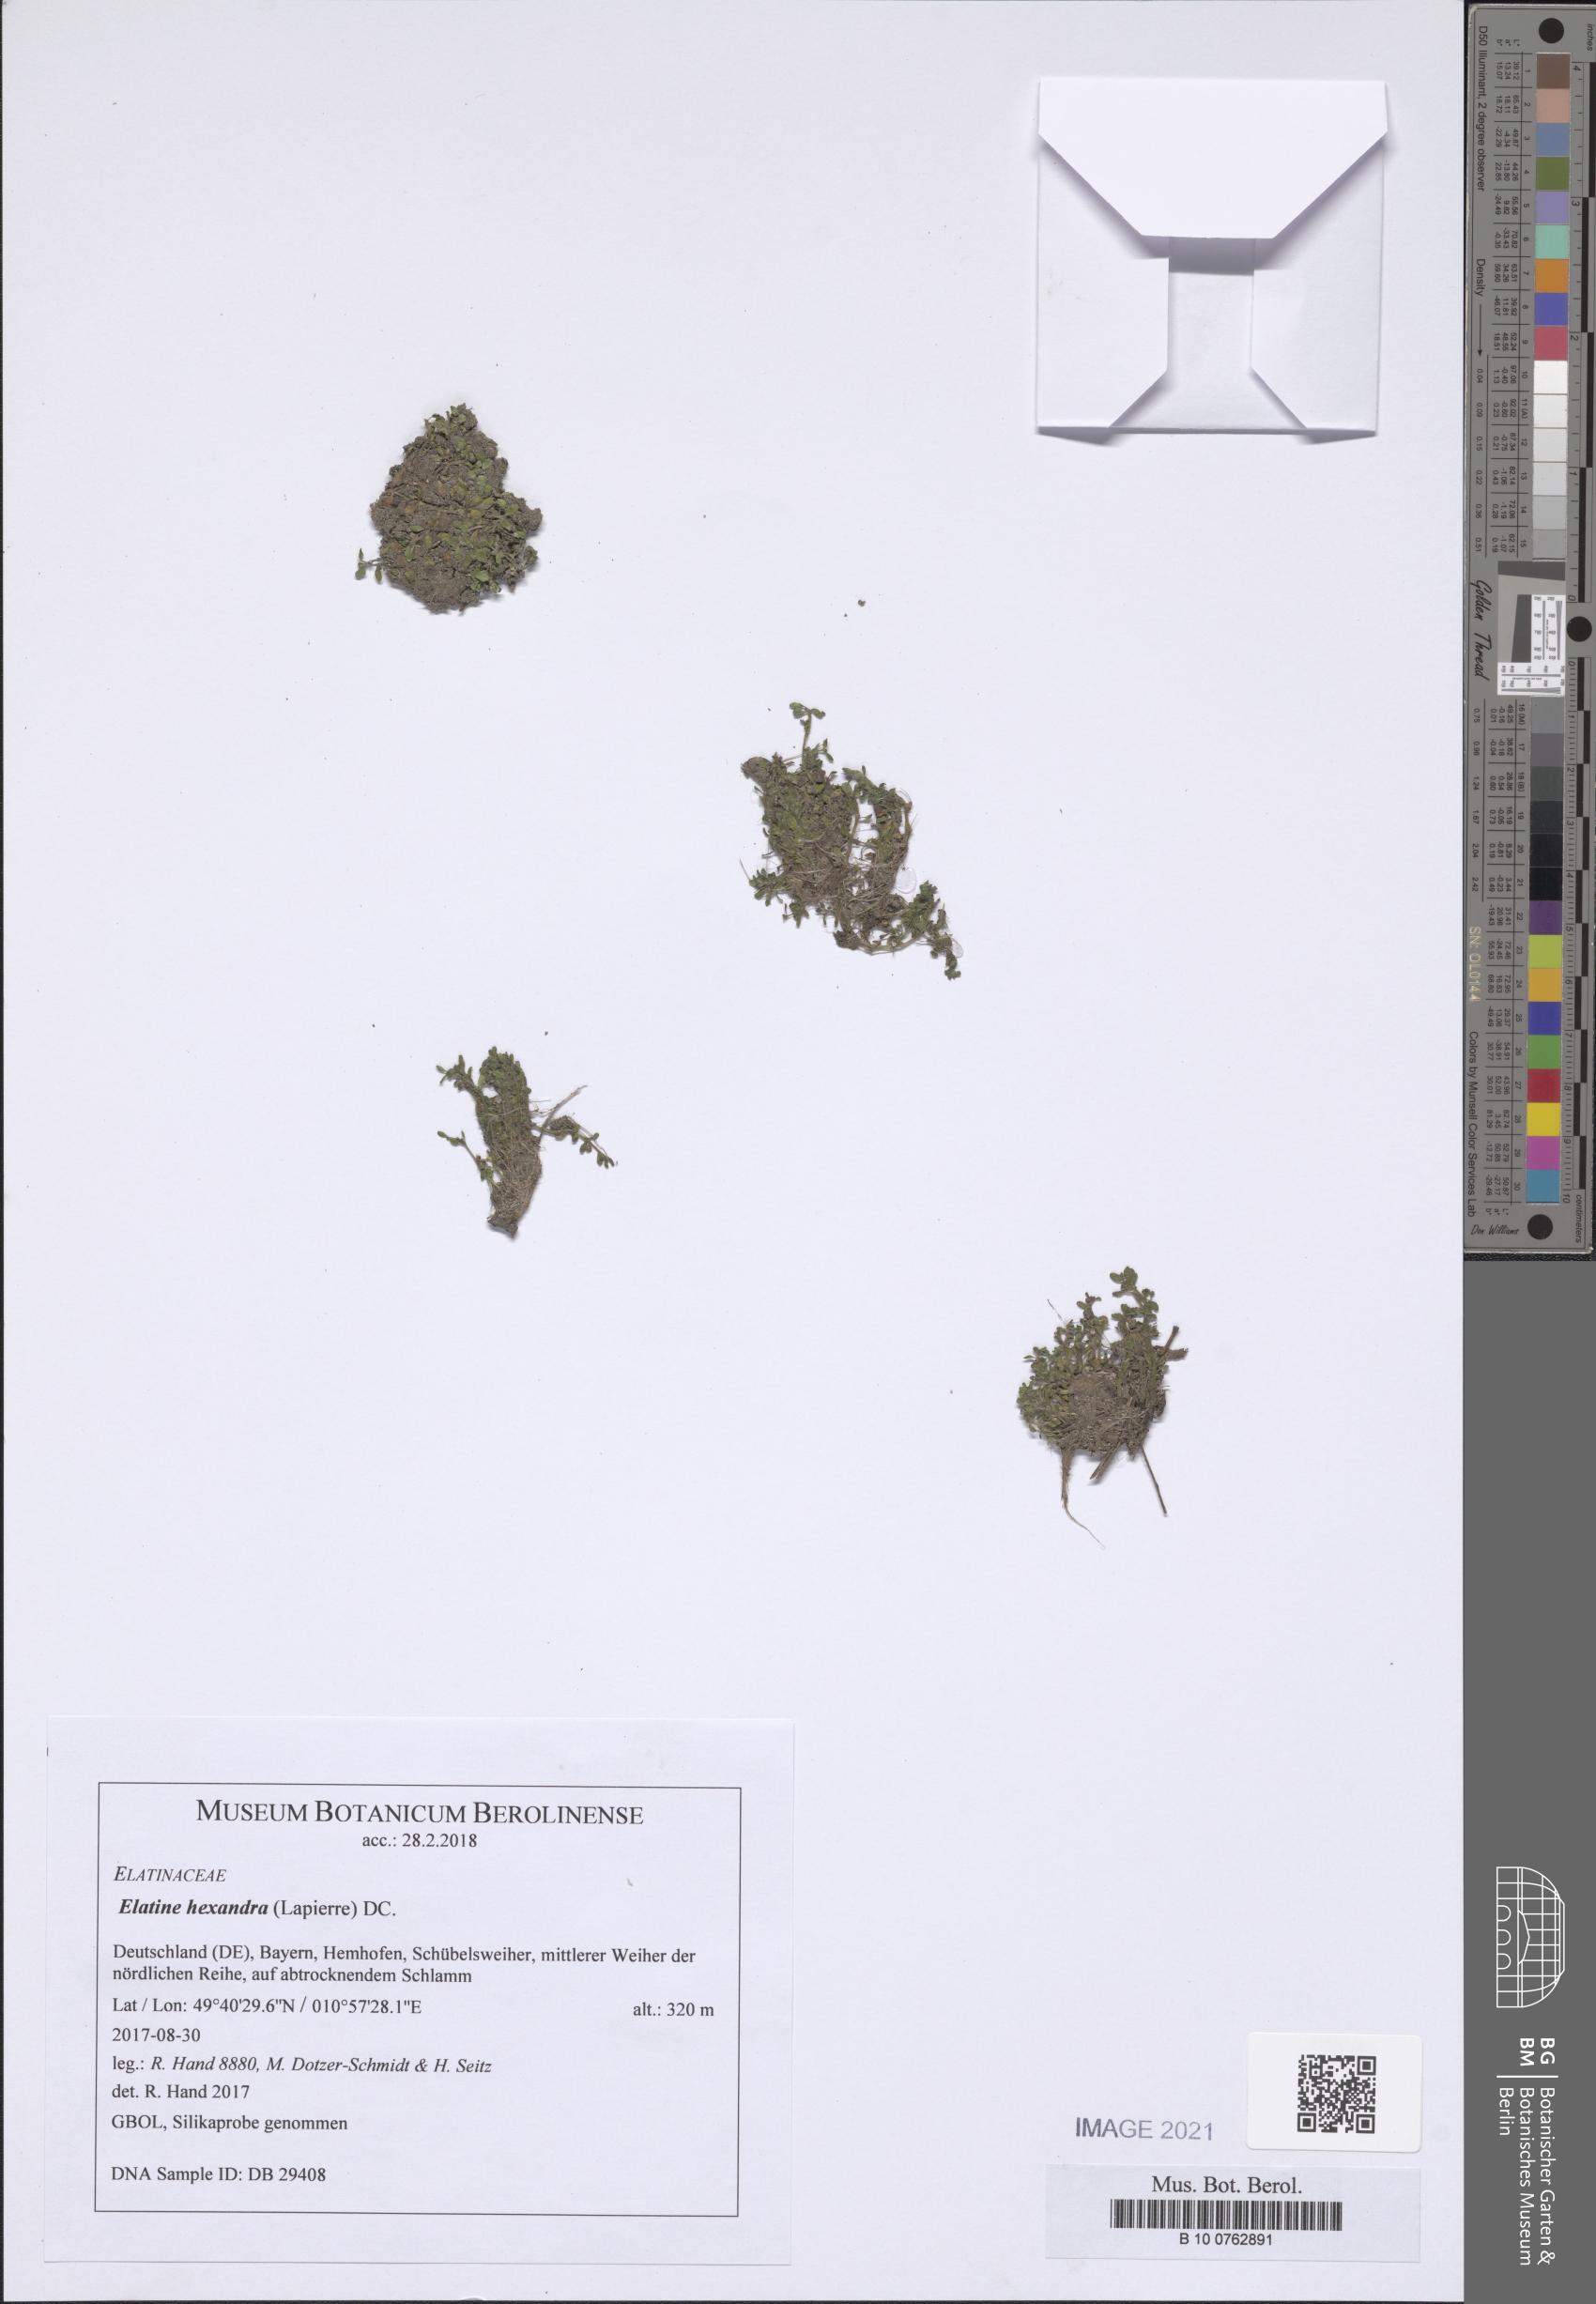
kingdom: Plantae
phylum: Tracheophyta
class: Magnoliopsida
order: Malpighiales
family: Elatinaceae
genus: Elatine
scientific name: Elatine hexandra
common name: Six-stamened waterwort
